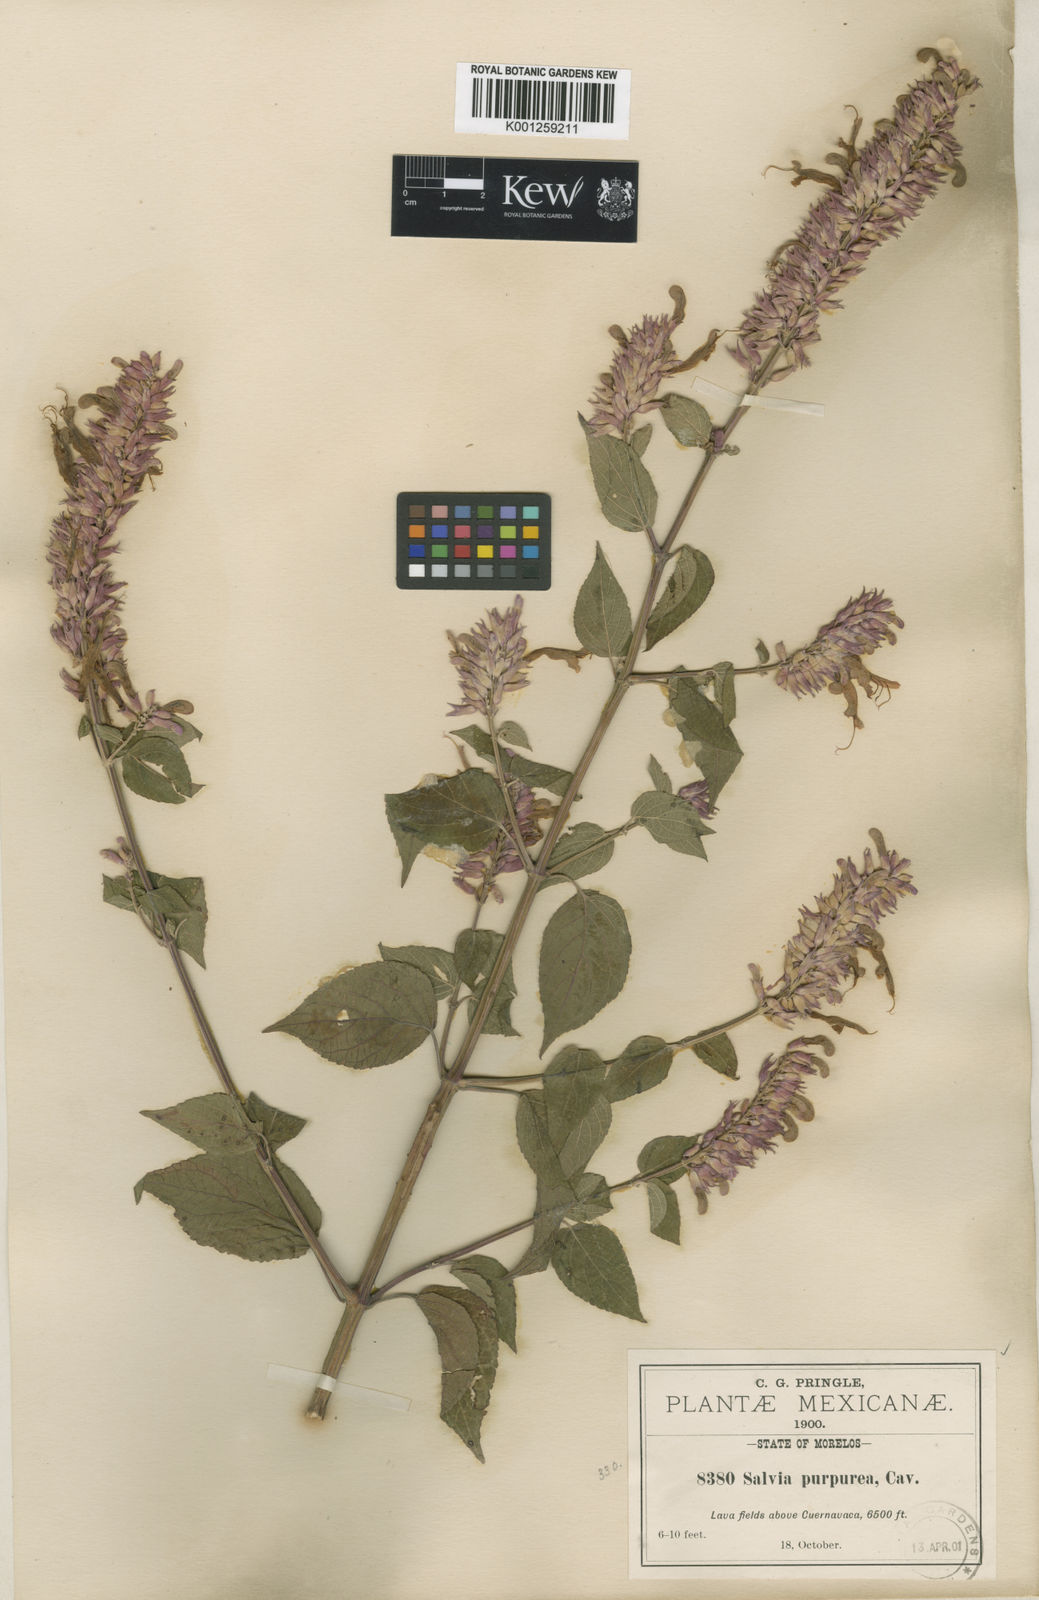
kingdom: Plantae
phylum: Tracheophyta
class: Magnoliopsida
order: Lamiales
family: Lamiaceae
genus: Salvia
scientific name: Salvia
